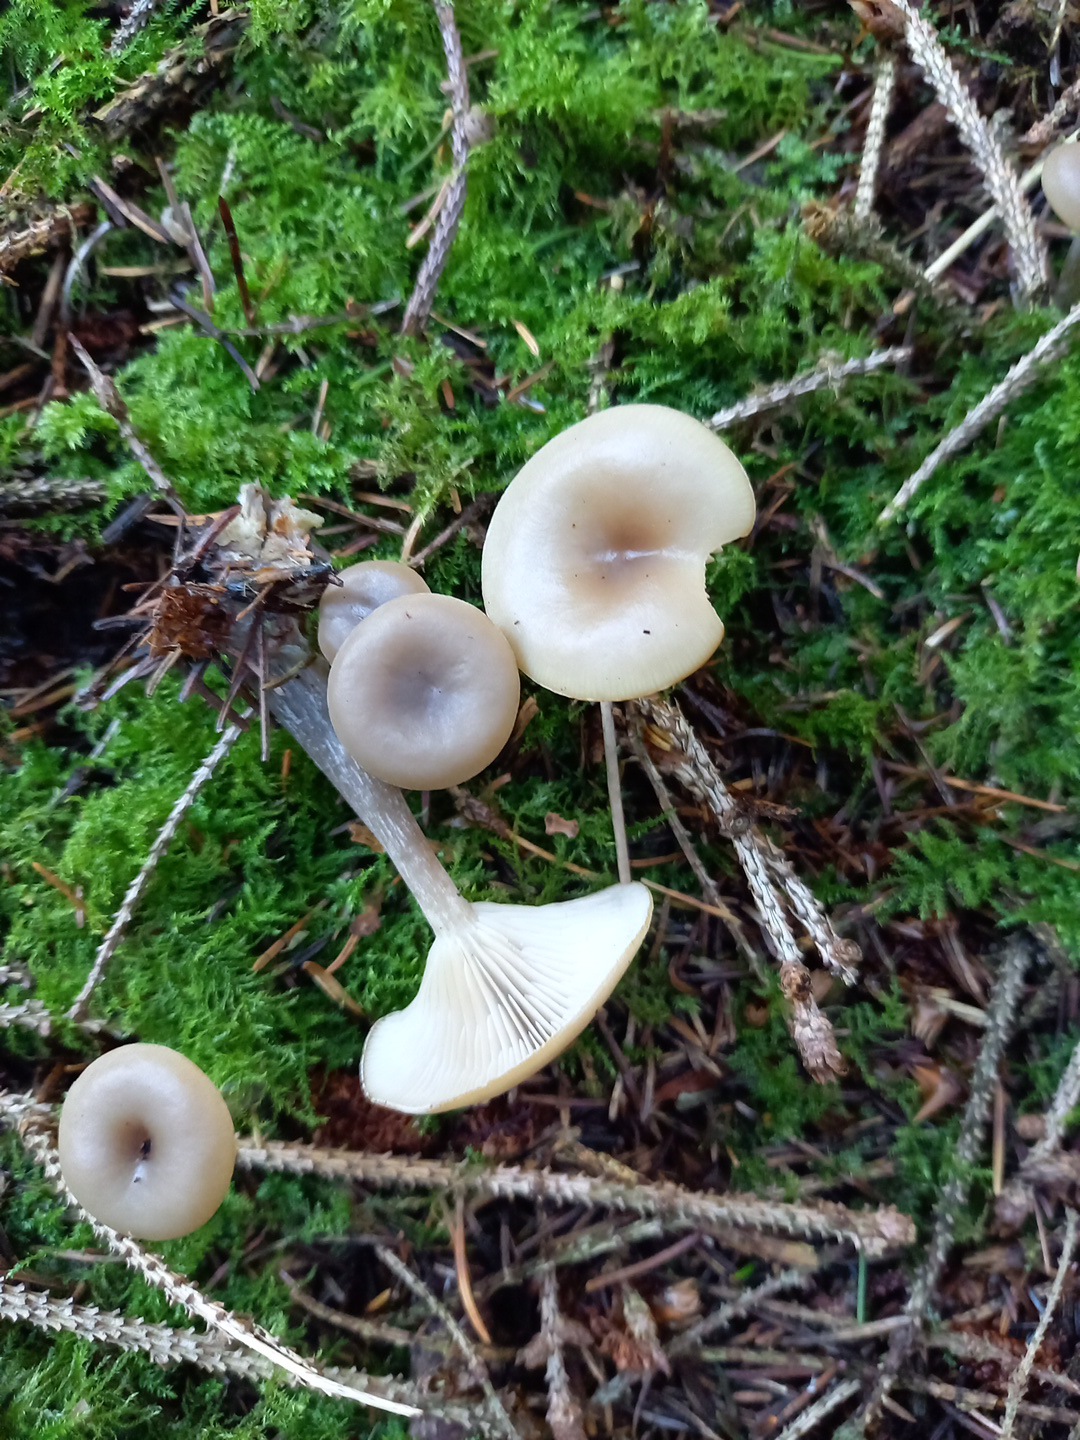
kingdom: Fungi
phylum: Basidiomycota
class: Agaricomycetes
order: Agaricales
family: Tricholomataceae
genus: Clitocybe
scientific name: Clitocybe metachroa
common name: grå tragthat
